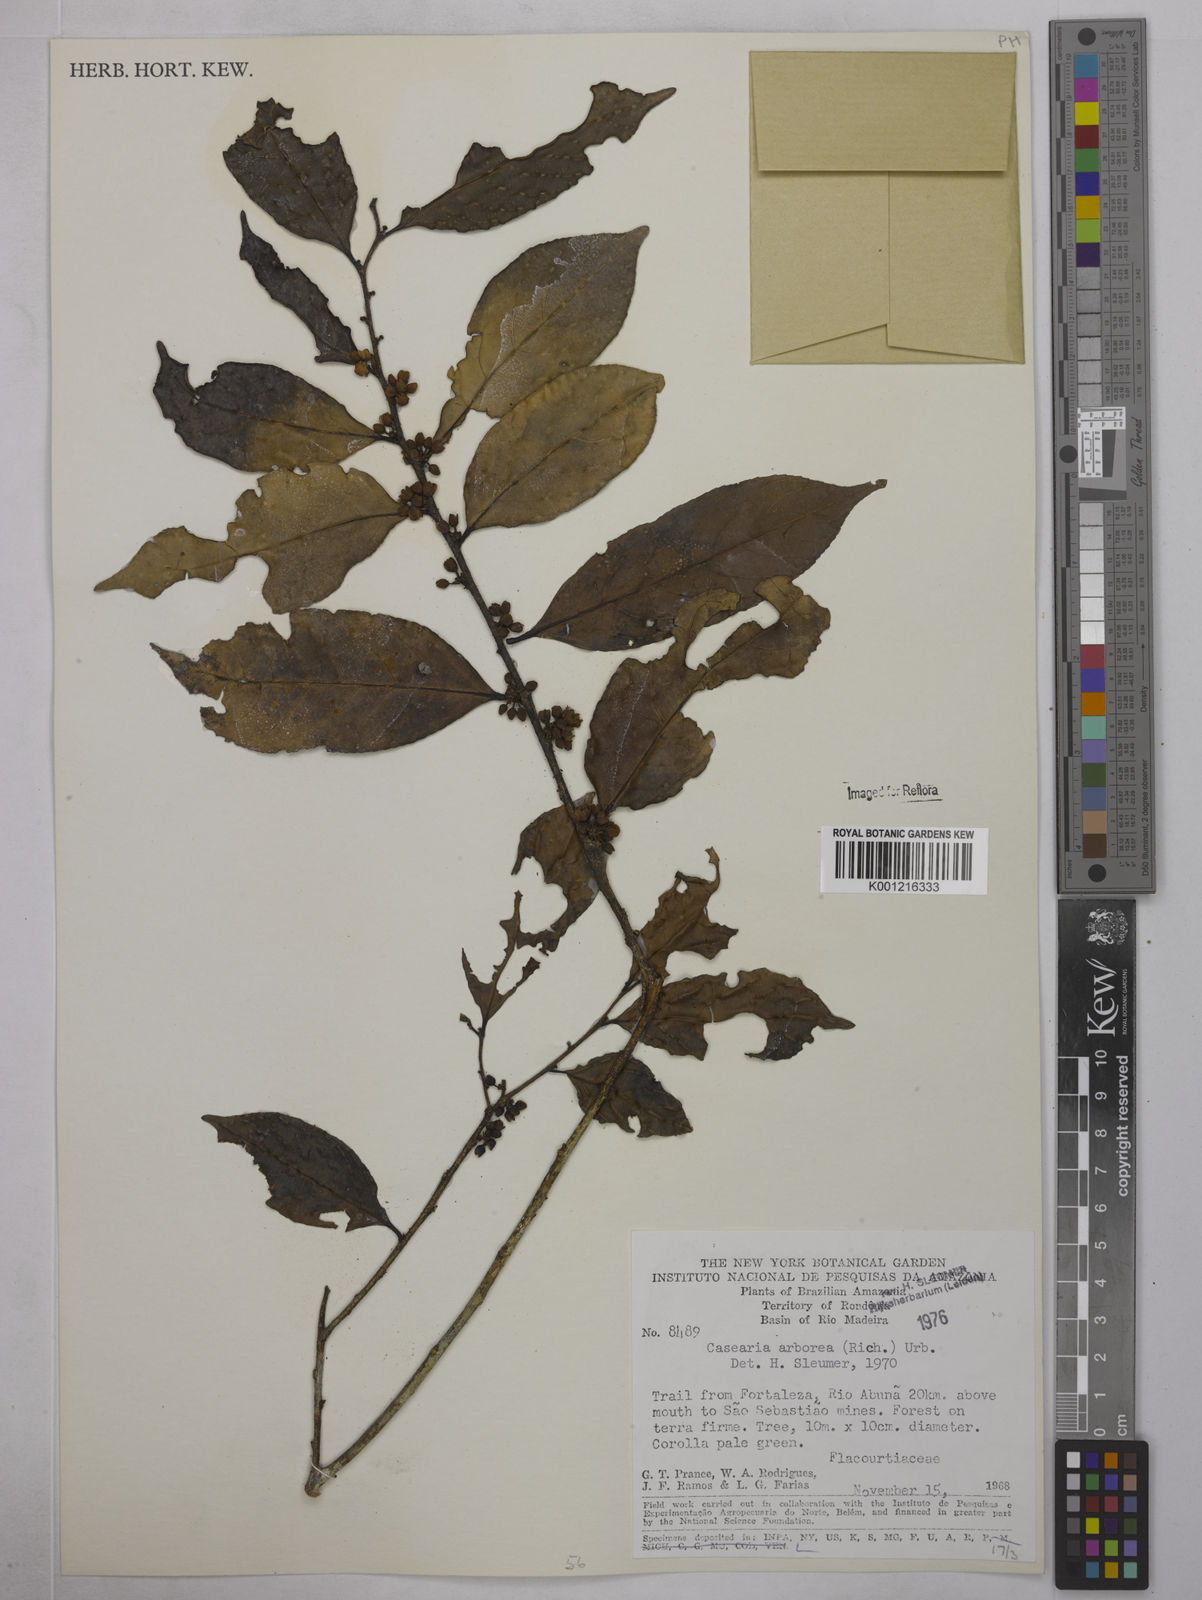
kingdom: Plantae
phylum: Tracheophyta
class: Magnoliopsida
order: Malpighiales
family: Salicaceae
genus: Casearia
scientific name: Casearia arborea
